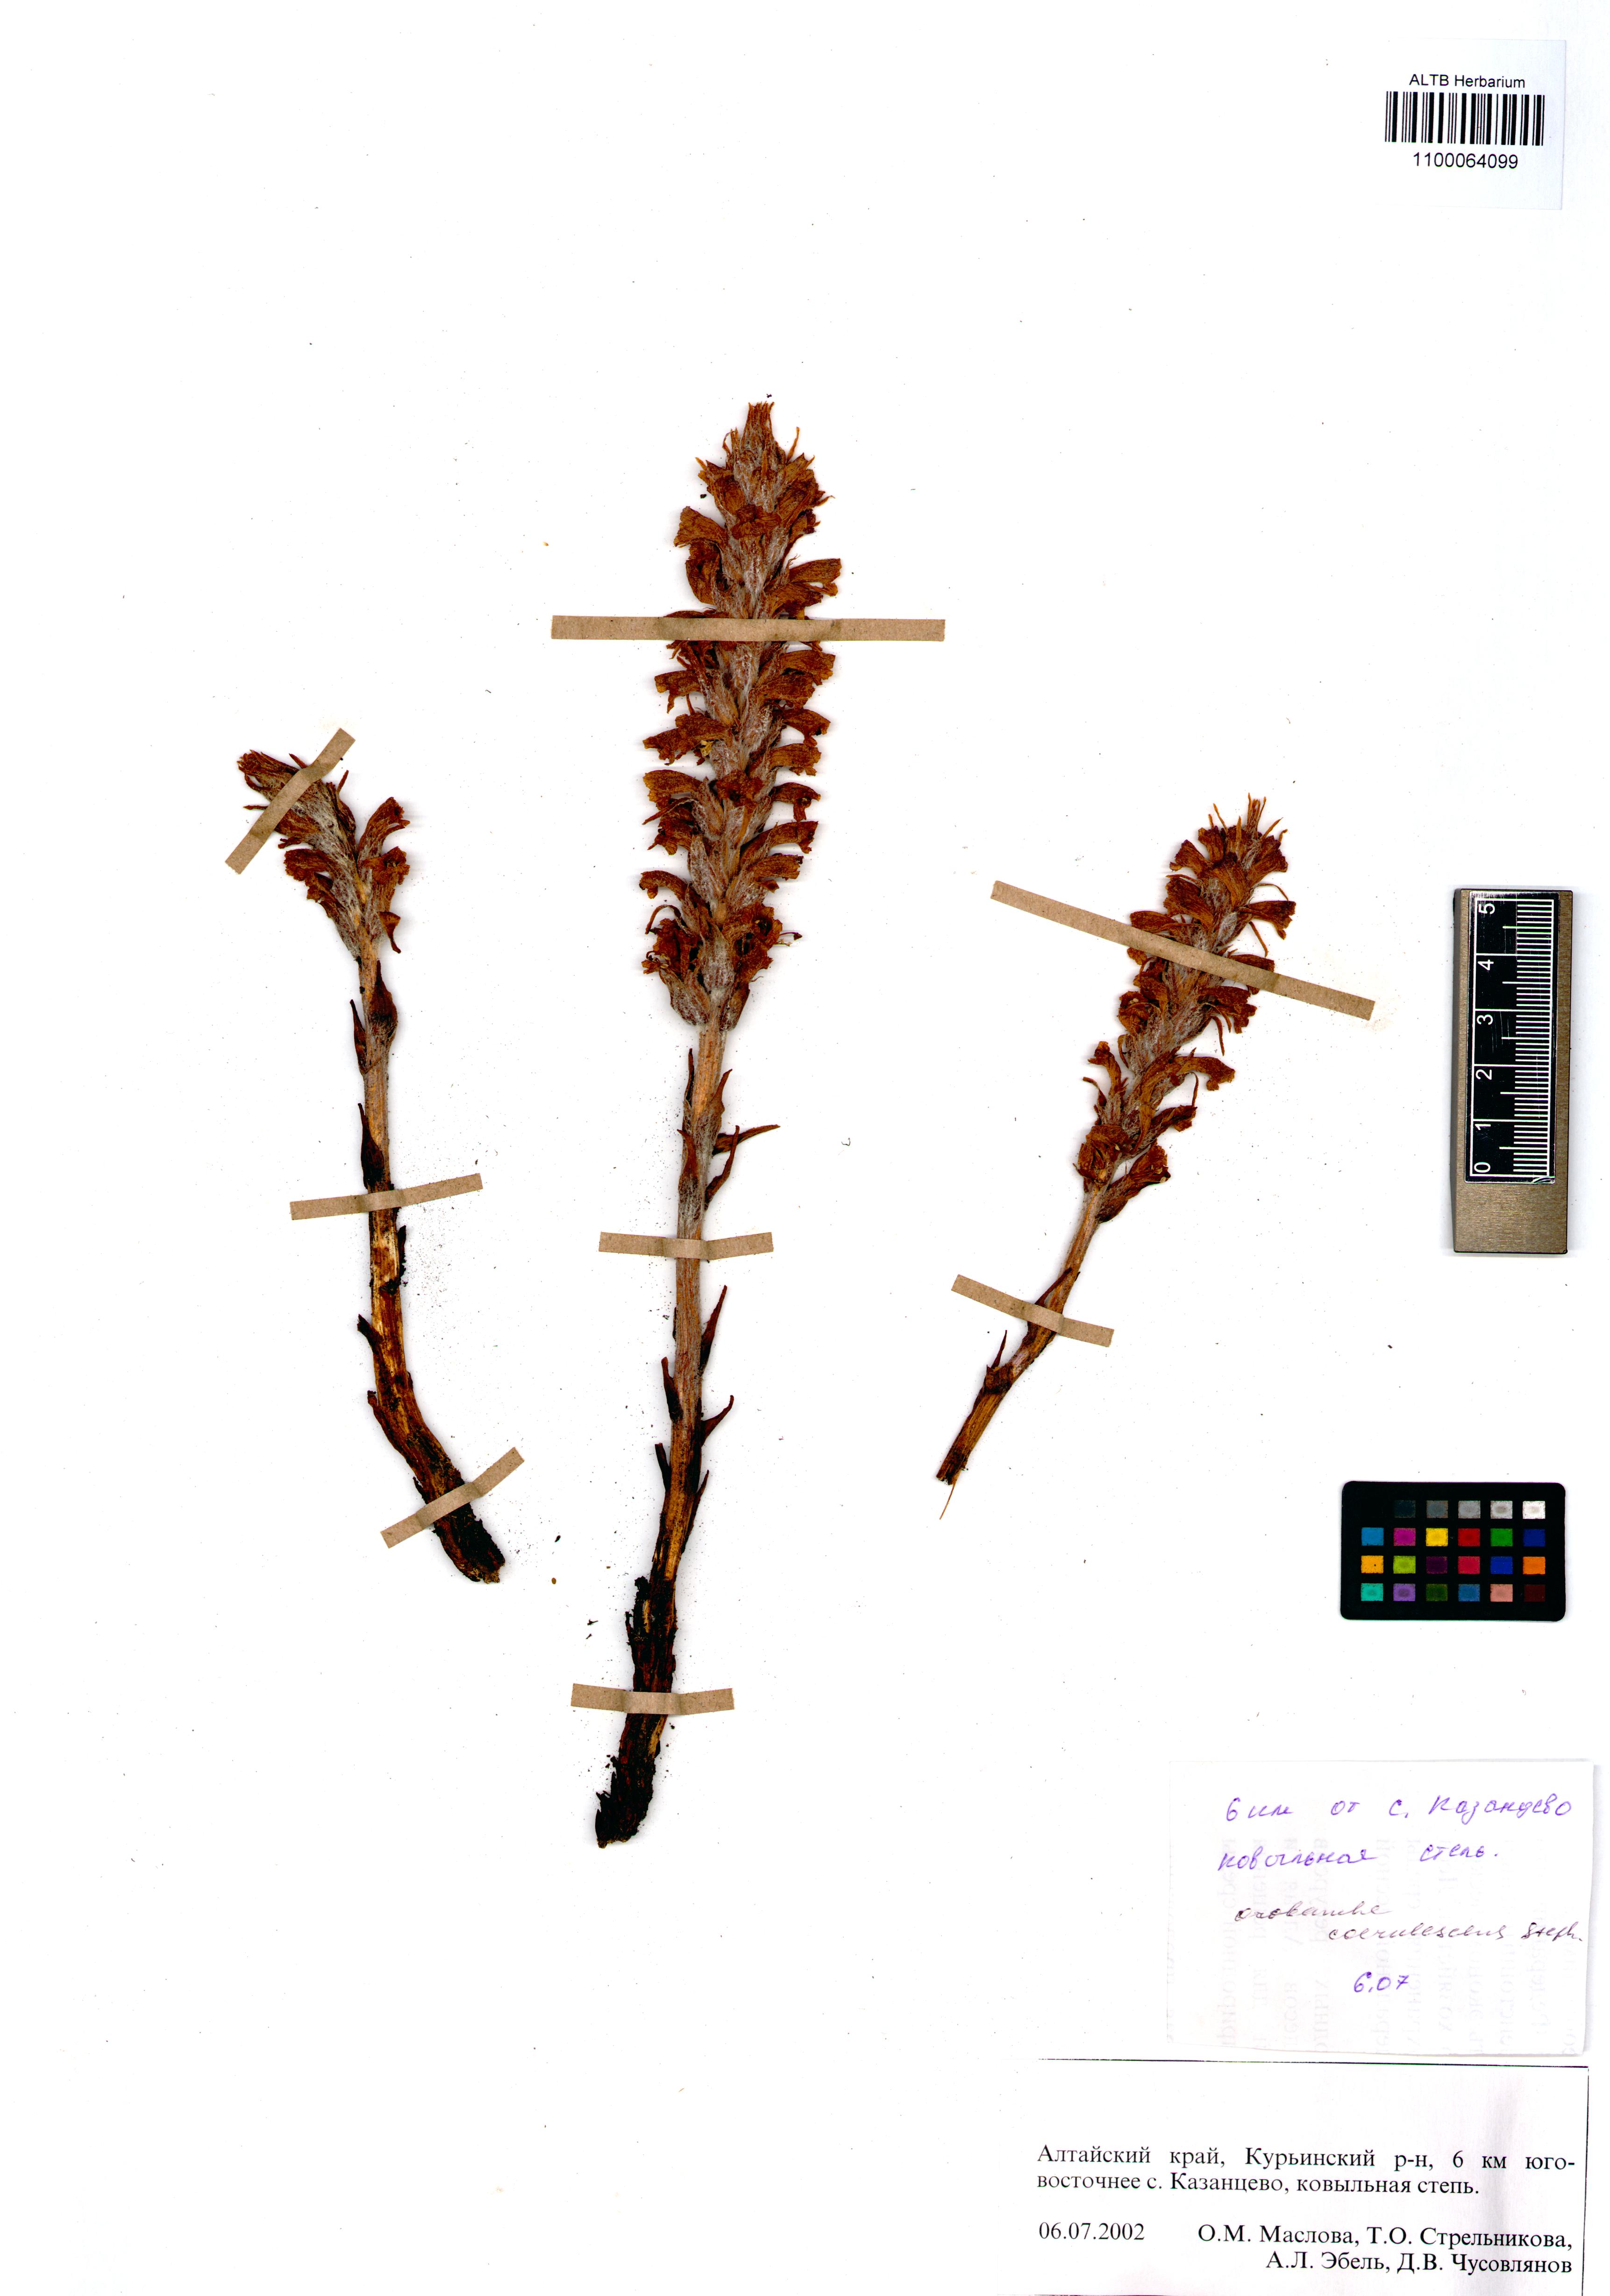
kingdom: Plantae
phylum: Tracheophyta
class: Magnoliopsida
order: Lamiales
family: Orobanchaceae
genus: Orobanche
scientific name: Orobanche coerulescens
